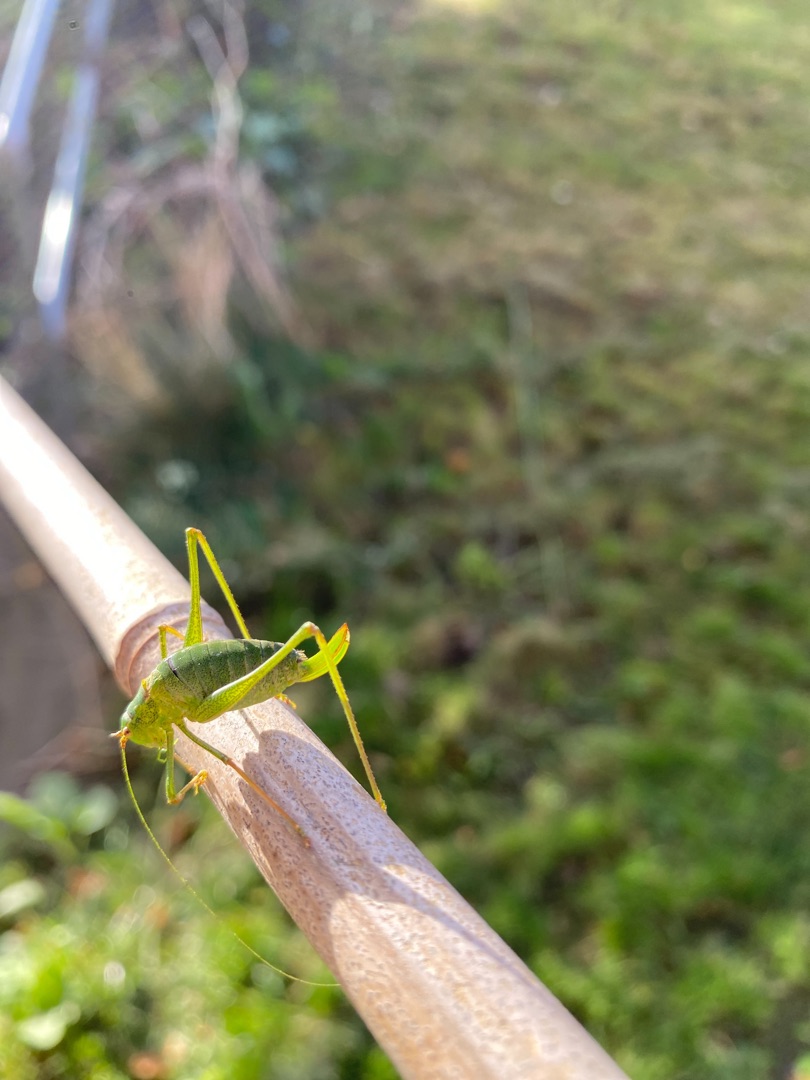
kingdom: Animalia
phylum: Arthropoda
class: Insecta
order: Orthoptera
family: Tettigoniidae
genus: Leptophyes
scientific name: Leptophyes punctatissima
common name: Krumknivgræshoppe
